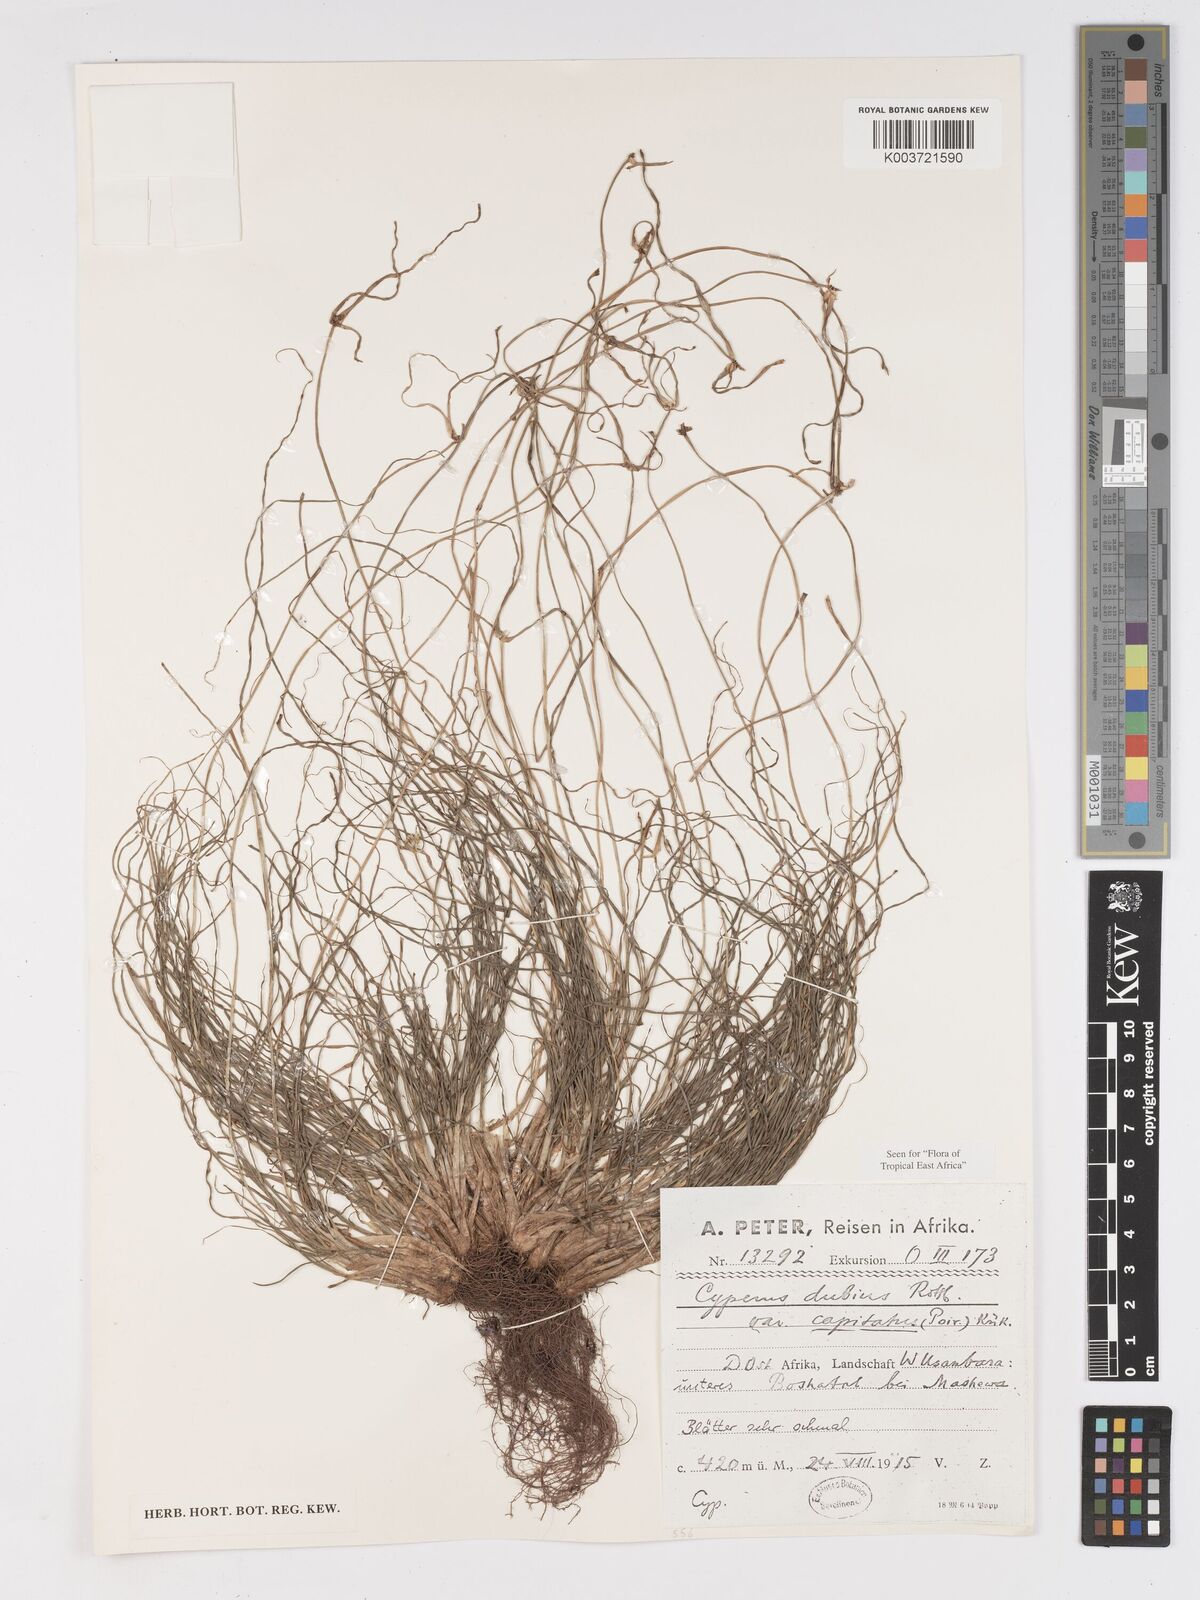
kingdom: Plantae
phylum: Tracheophyta
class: Liliopsida
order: Poales
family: Cyperaceae
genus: Cyperus
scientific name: Cyperus dubius
